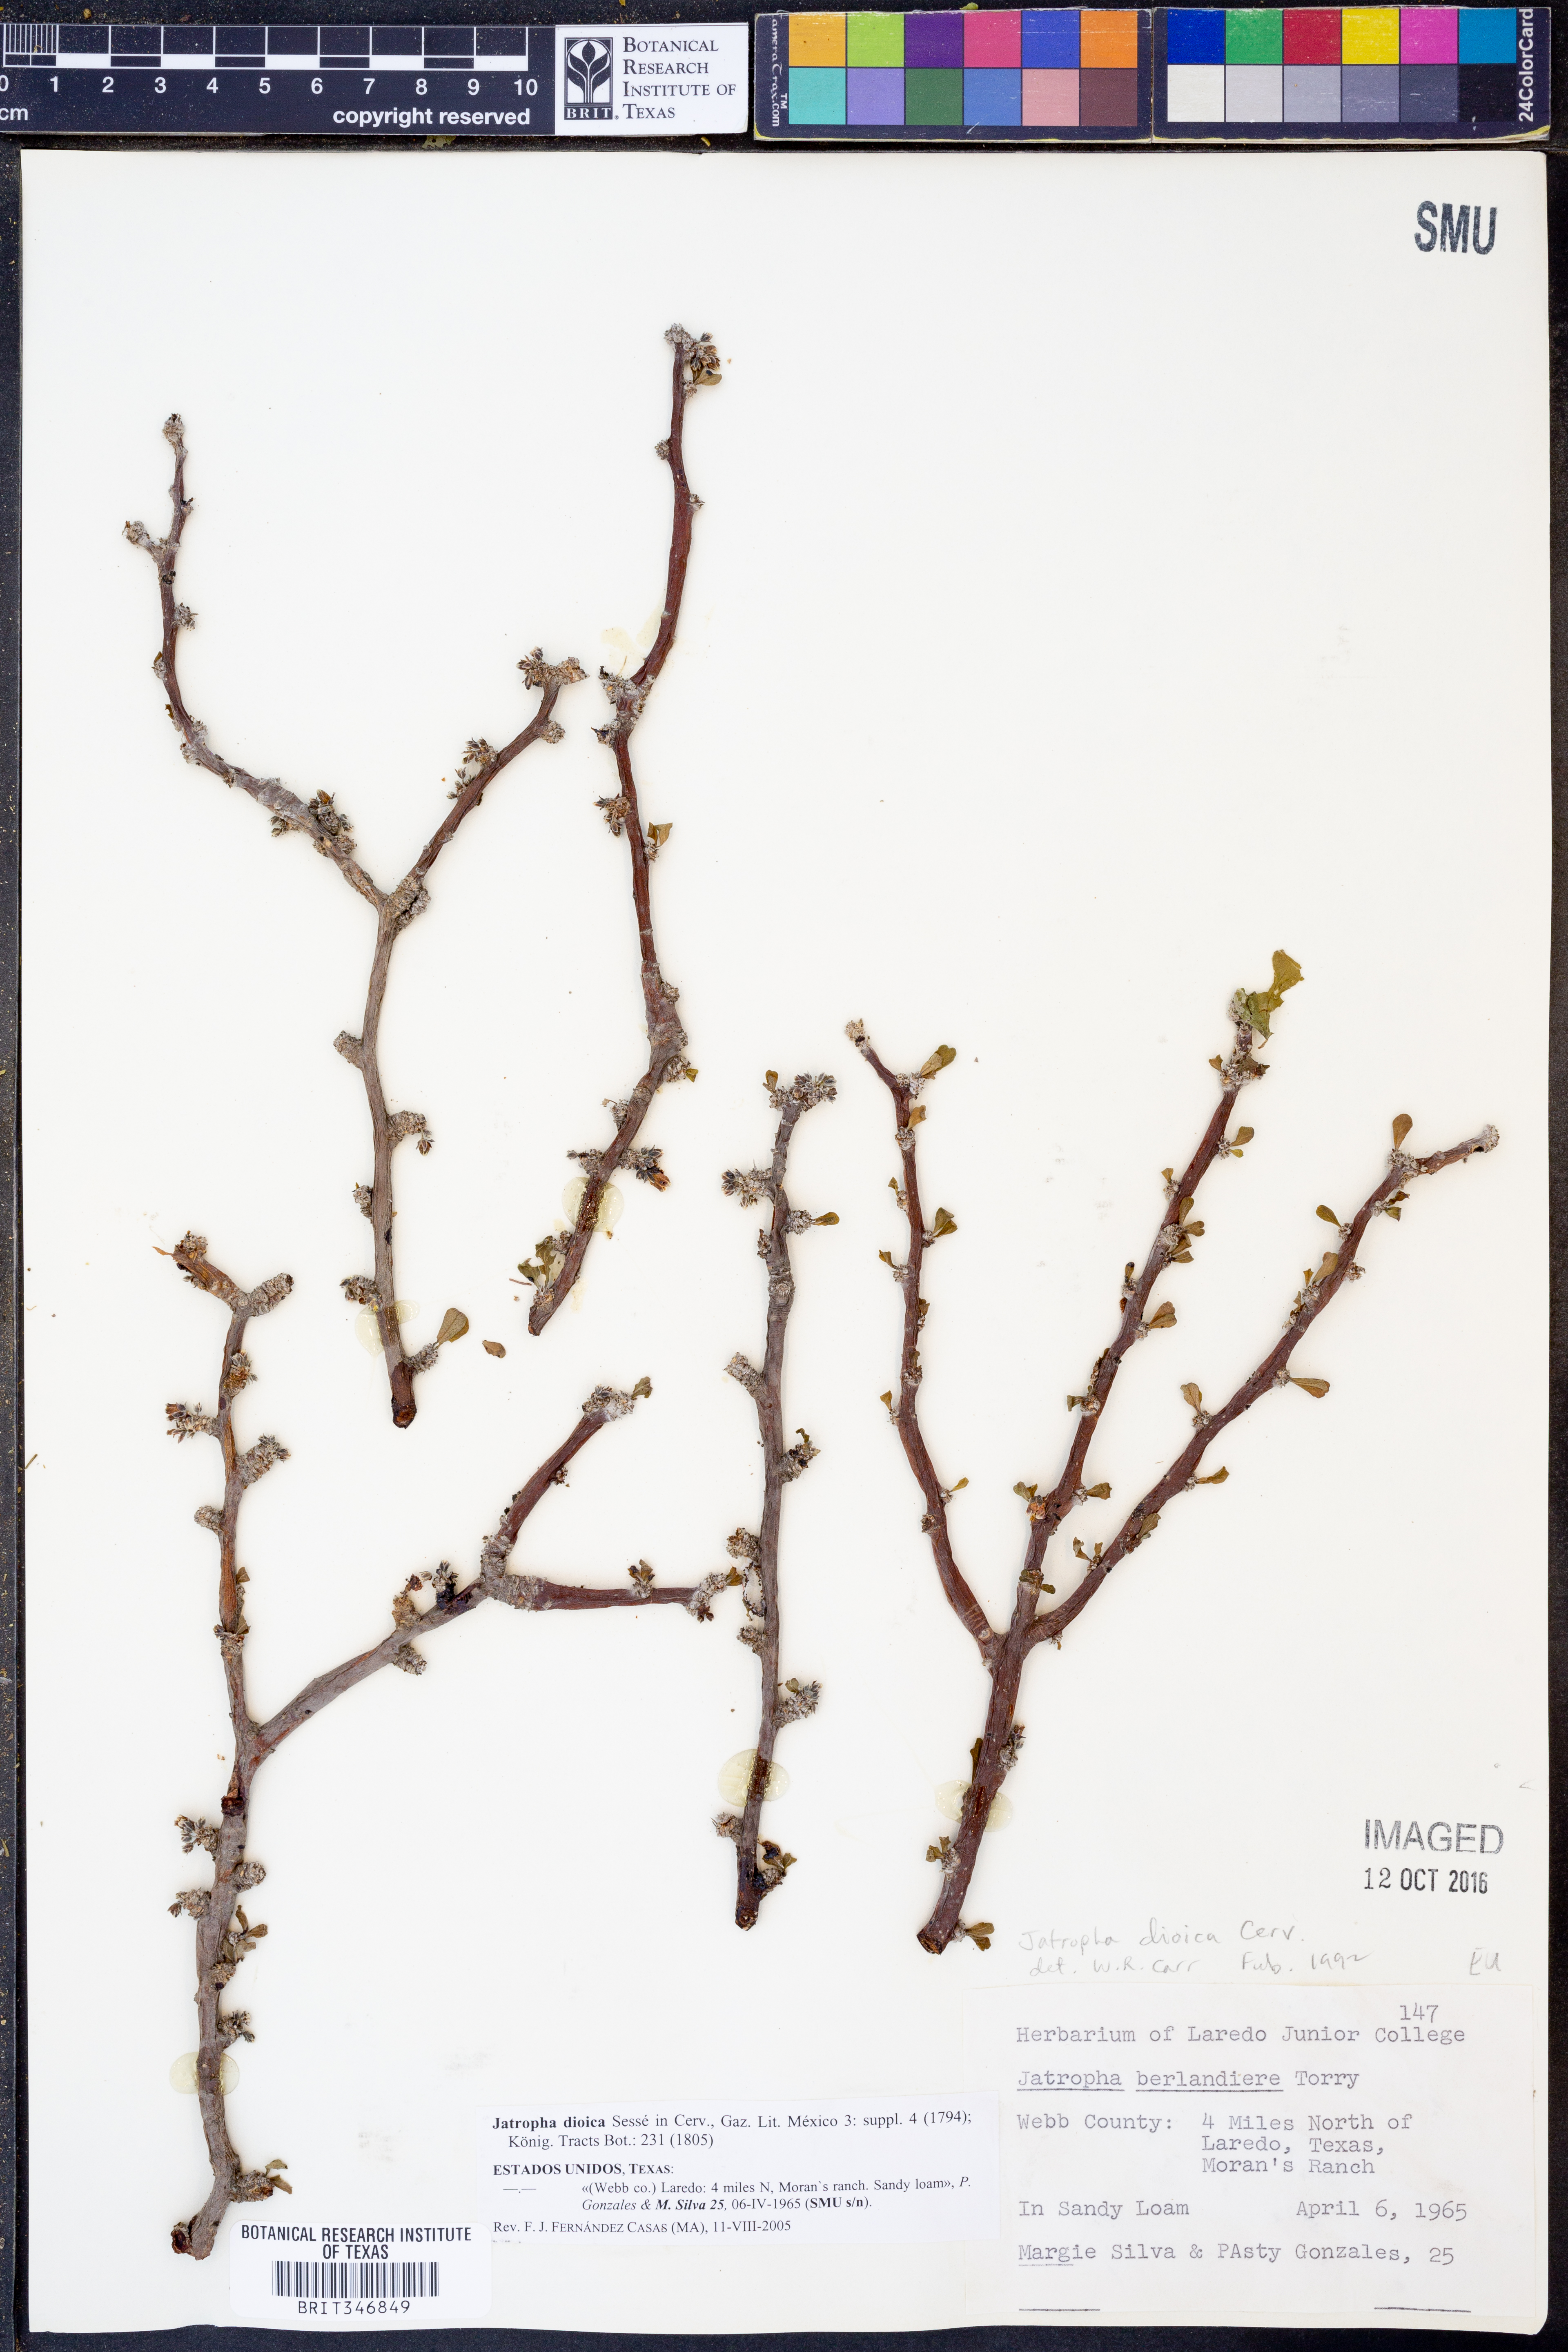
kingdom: Plantae
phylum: Tracheophyta
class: Magnoliopsida
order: Malpighiales
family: Euphorbiaceae
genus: Jatropha
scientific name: Jatropha dioica
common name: Leatherstem
